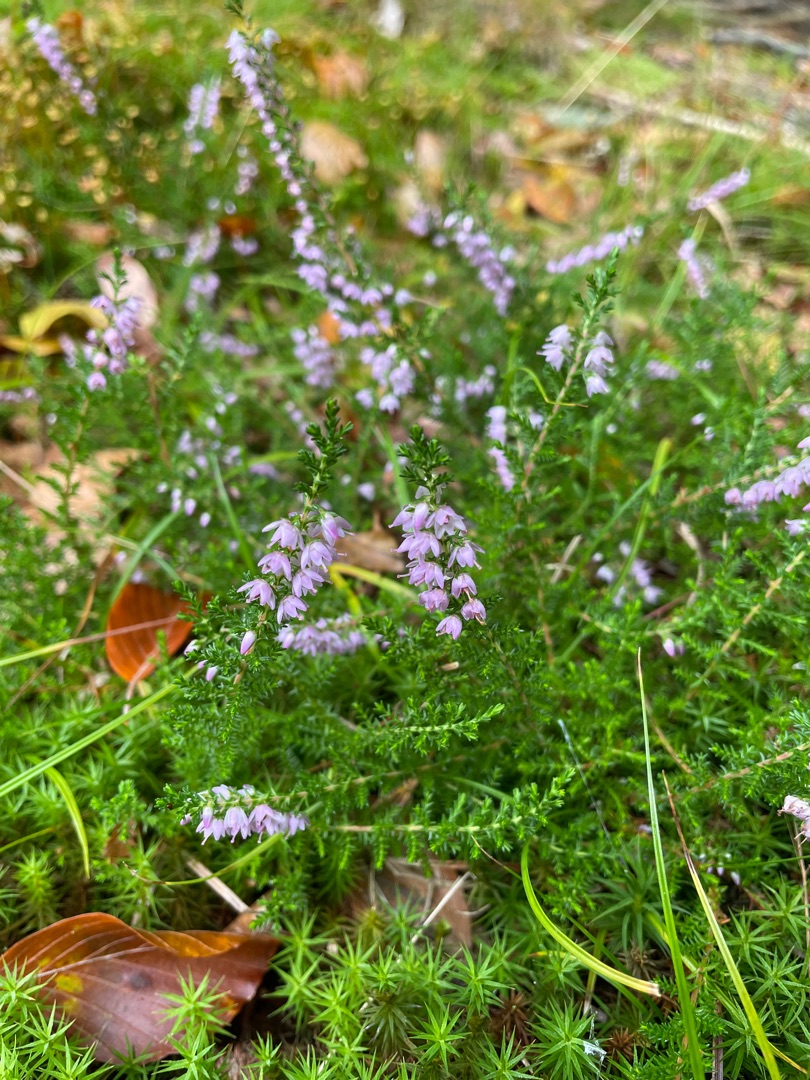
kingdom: Plantae
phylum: Tracheophyta
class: Magnoliopsida
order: Ericales
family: Ericaceae
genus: Calluna
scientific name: Calluna vulgaris
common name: Hedelyng
